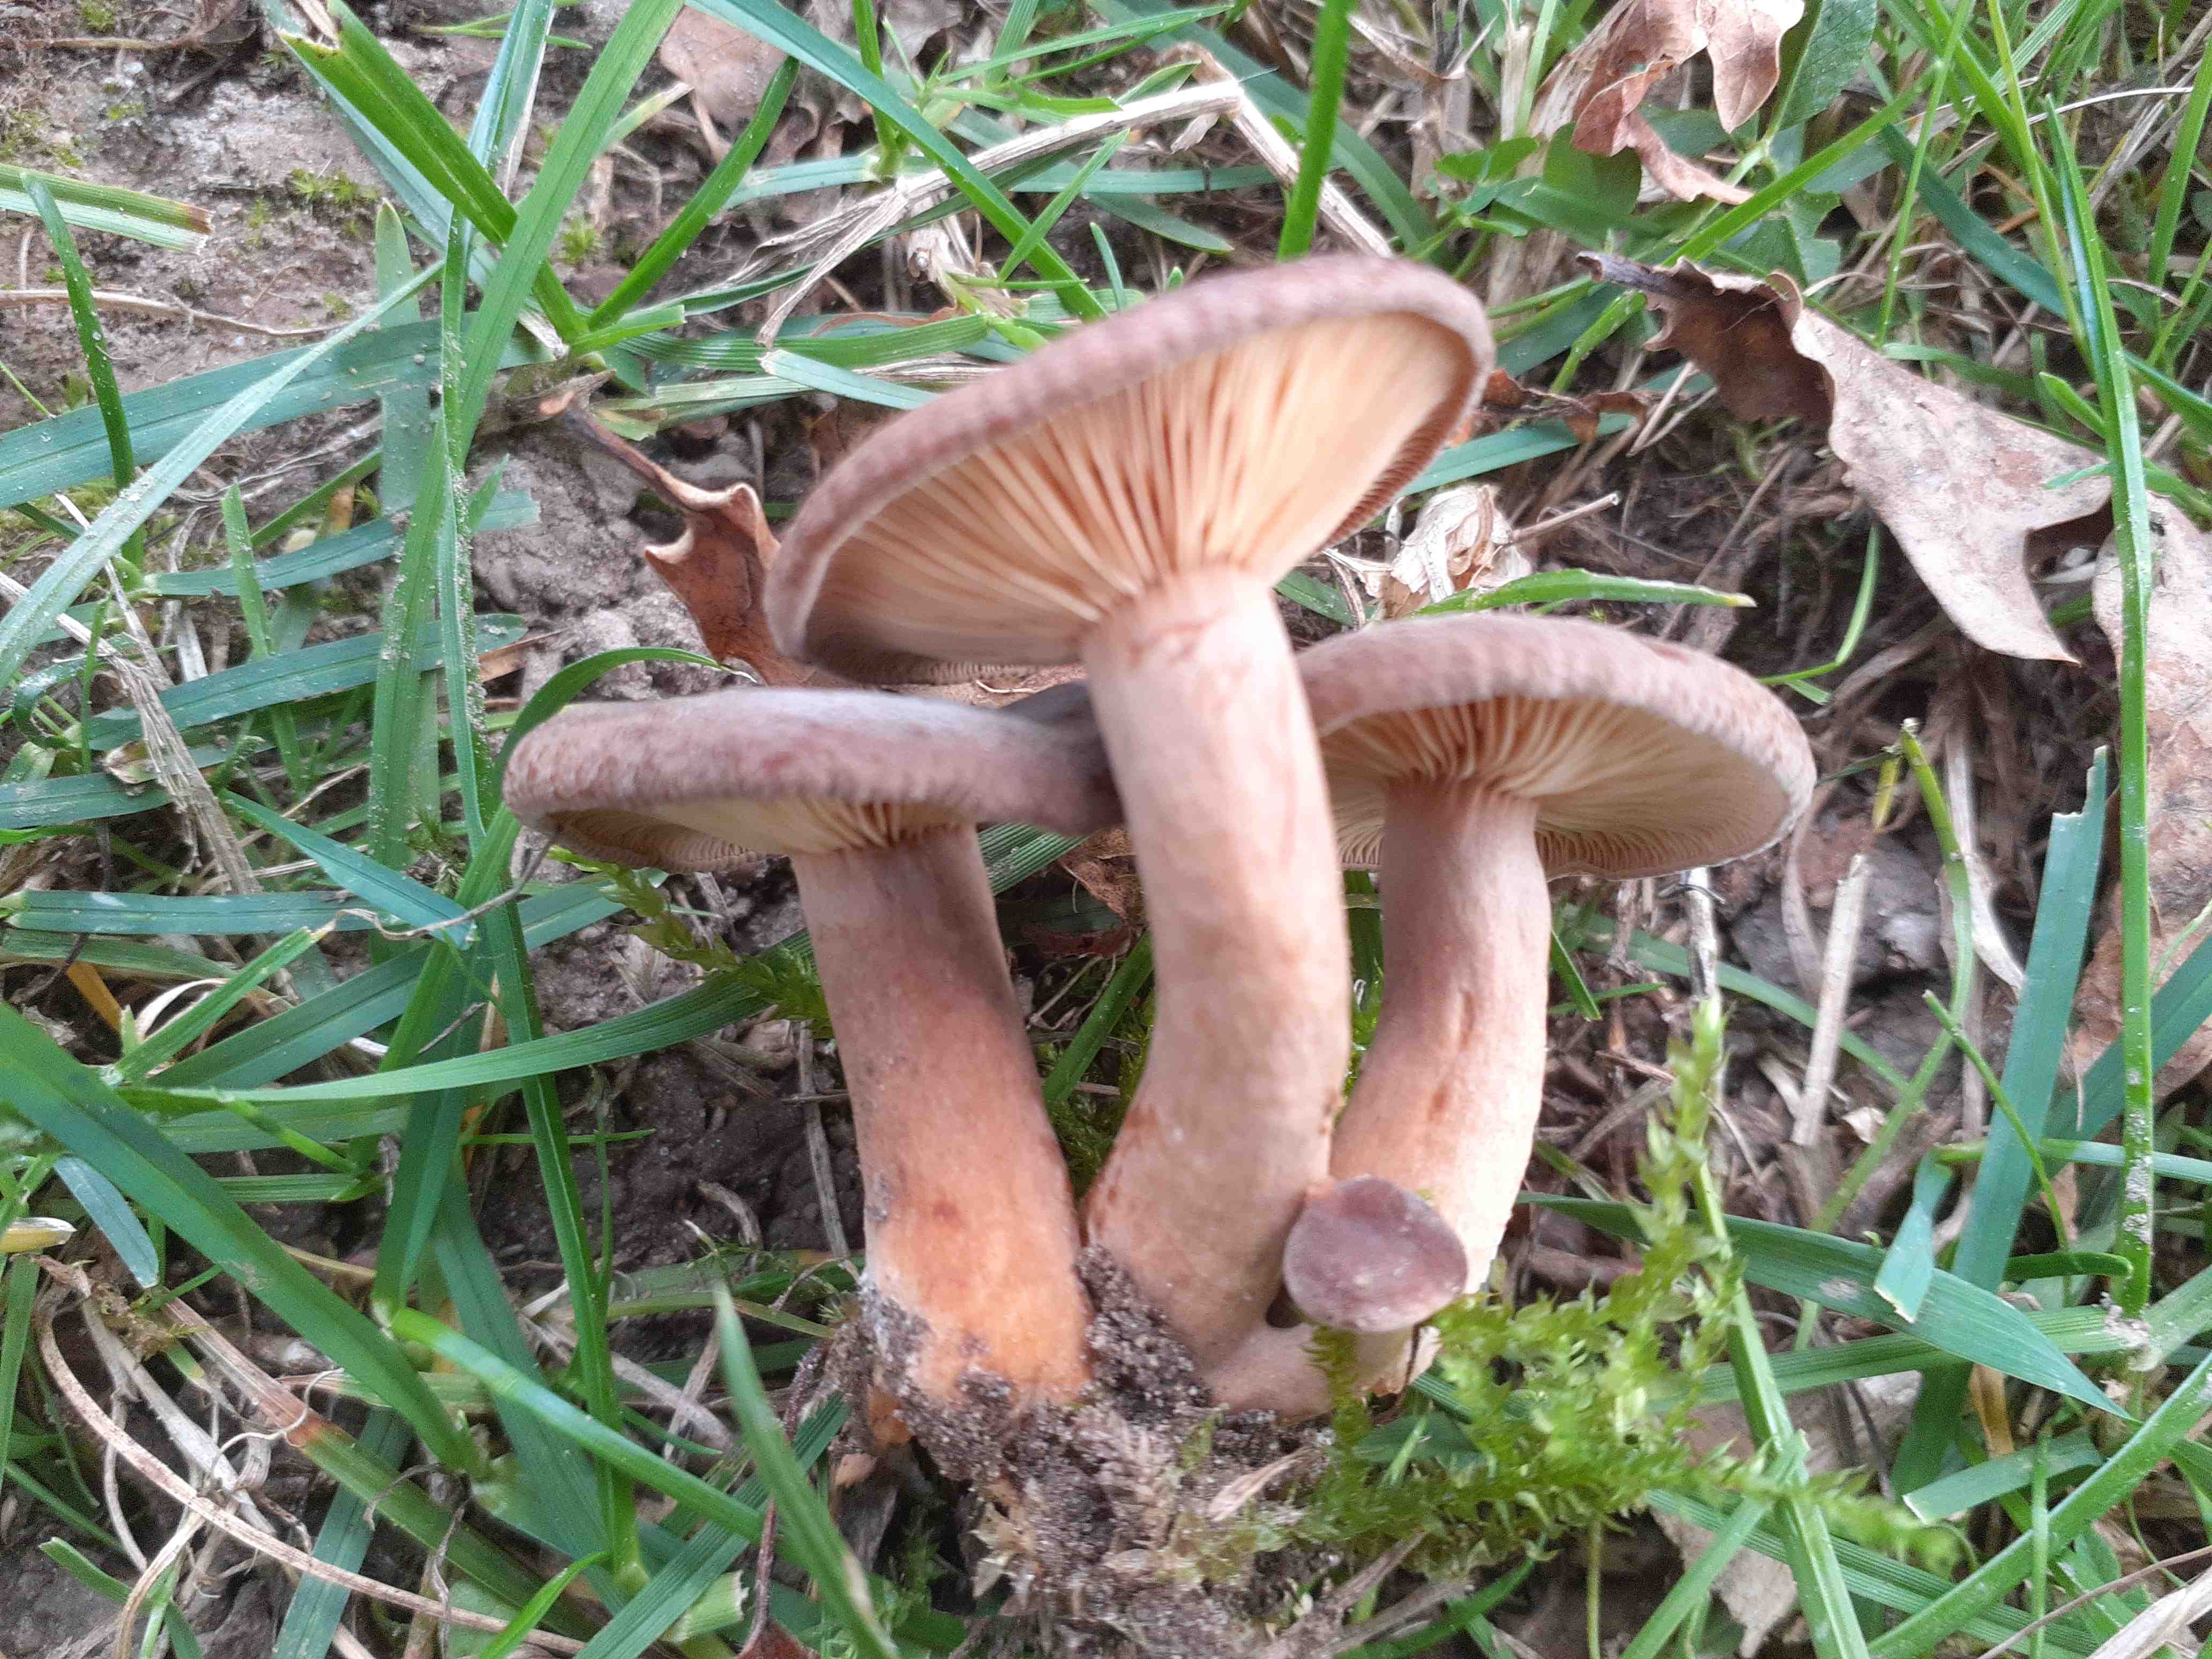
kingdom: Fungi
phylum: Basidiomycota
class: Agaricomycetes
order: Russulales
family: Russulaceae
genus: Lactarius
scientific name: Lactarius serifluus
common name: tæge-mælkehat
